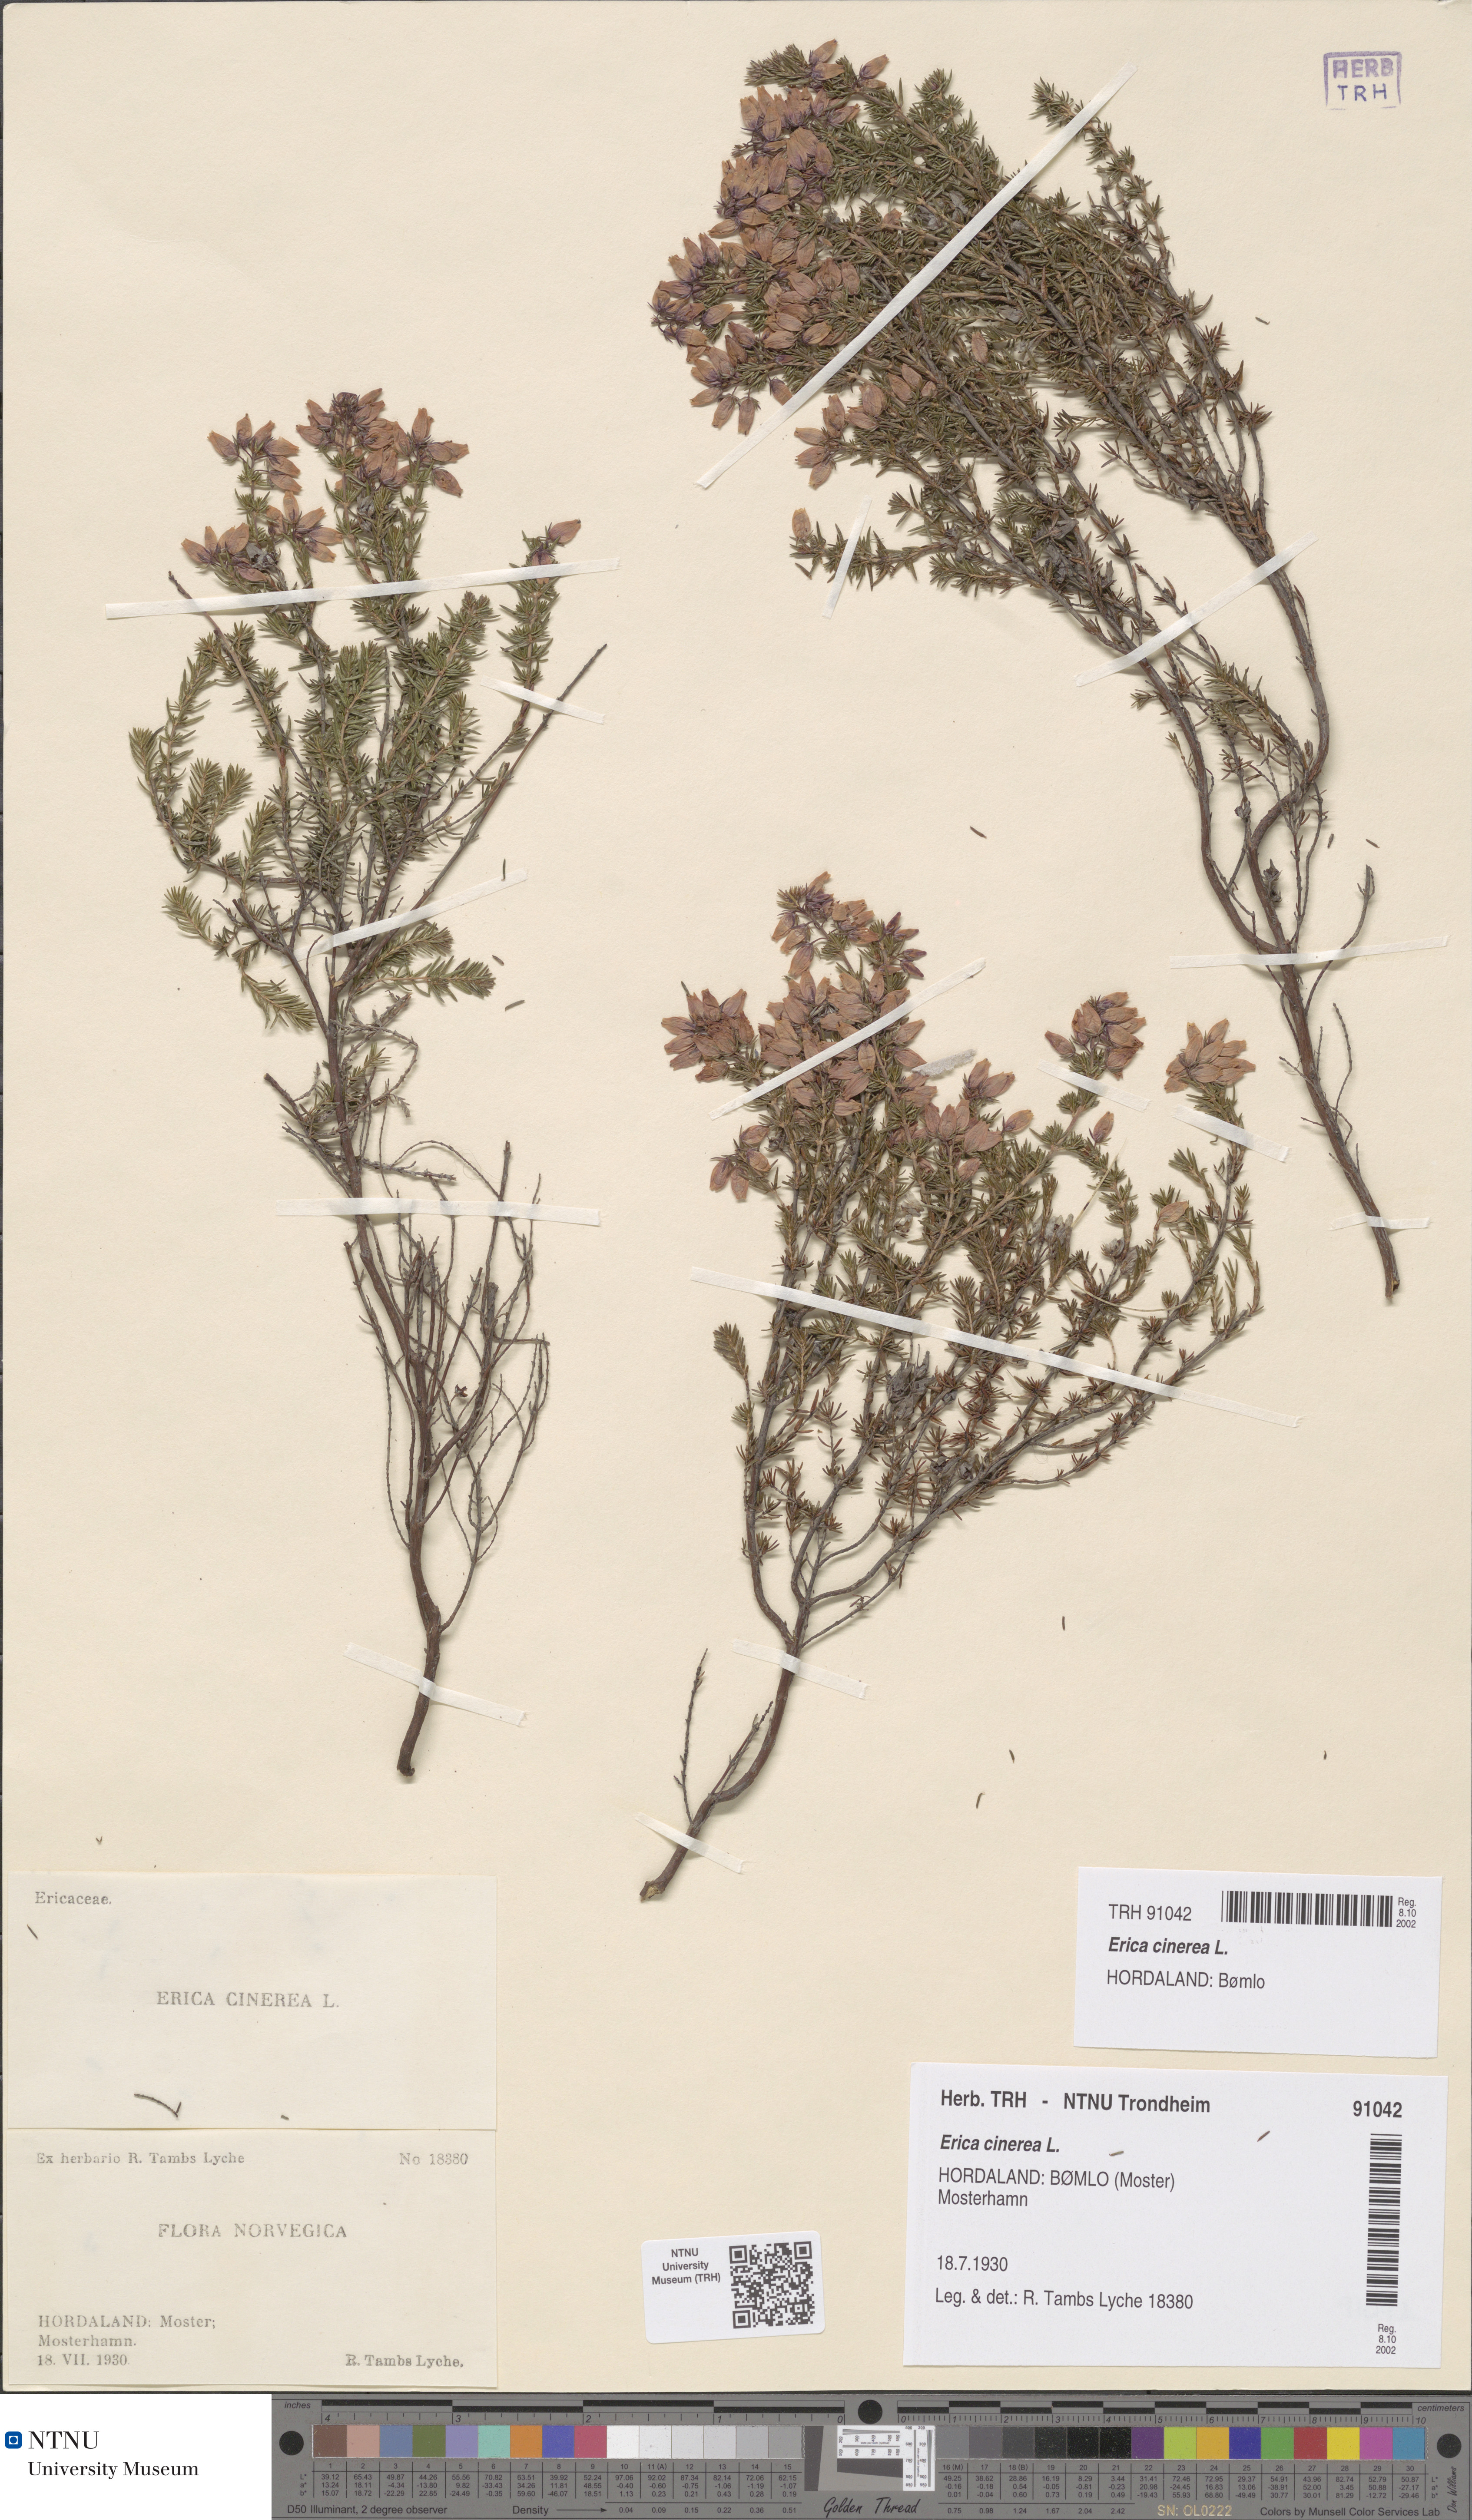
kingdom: Plantae
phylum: Tracheophyta
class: Magnoliopsida
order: Ericales
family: Ericaceae
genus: Erica
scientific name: Erica cinerea
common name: Bell heather
